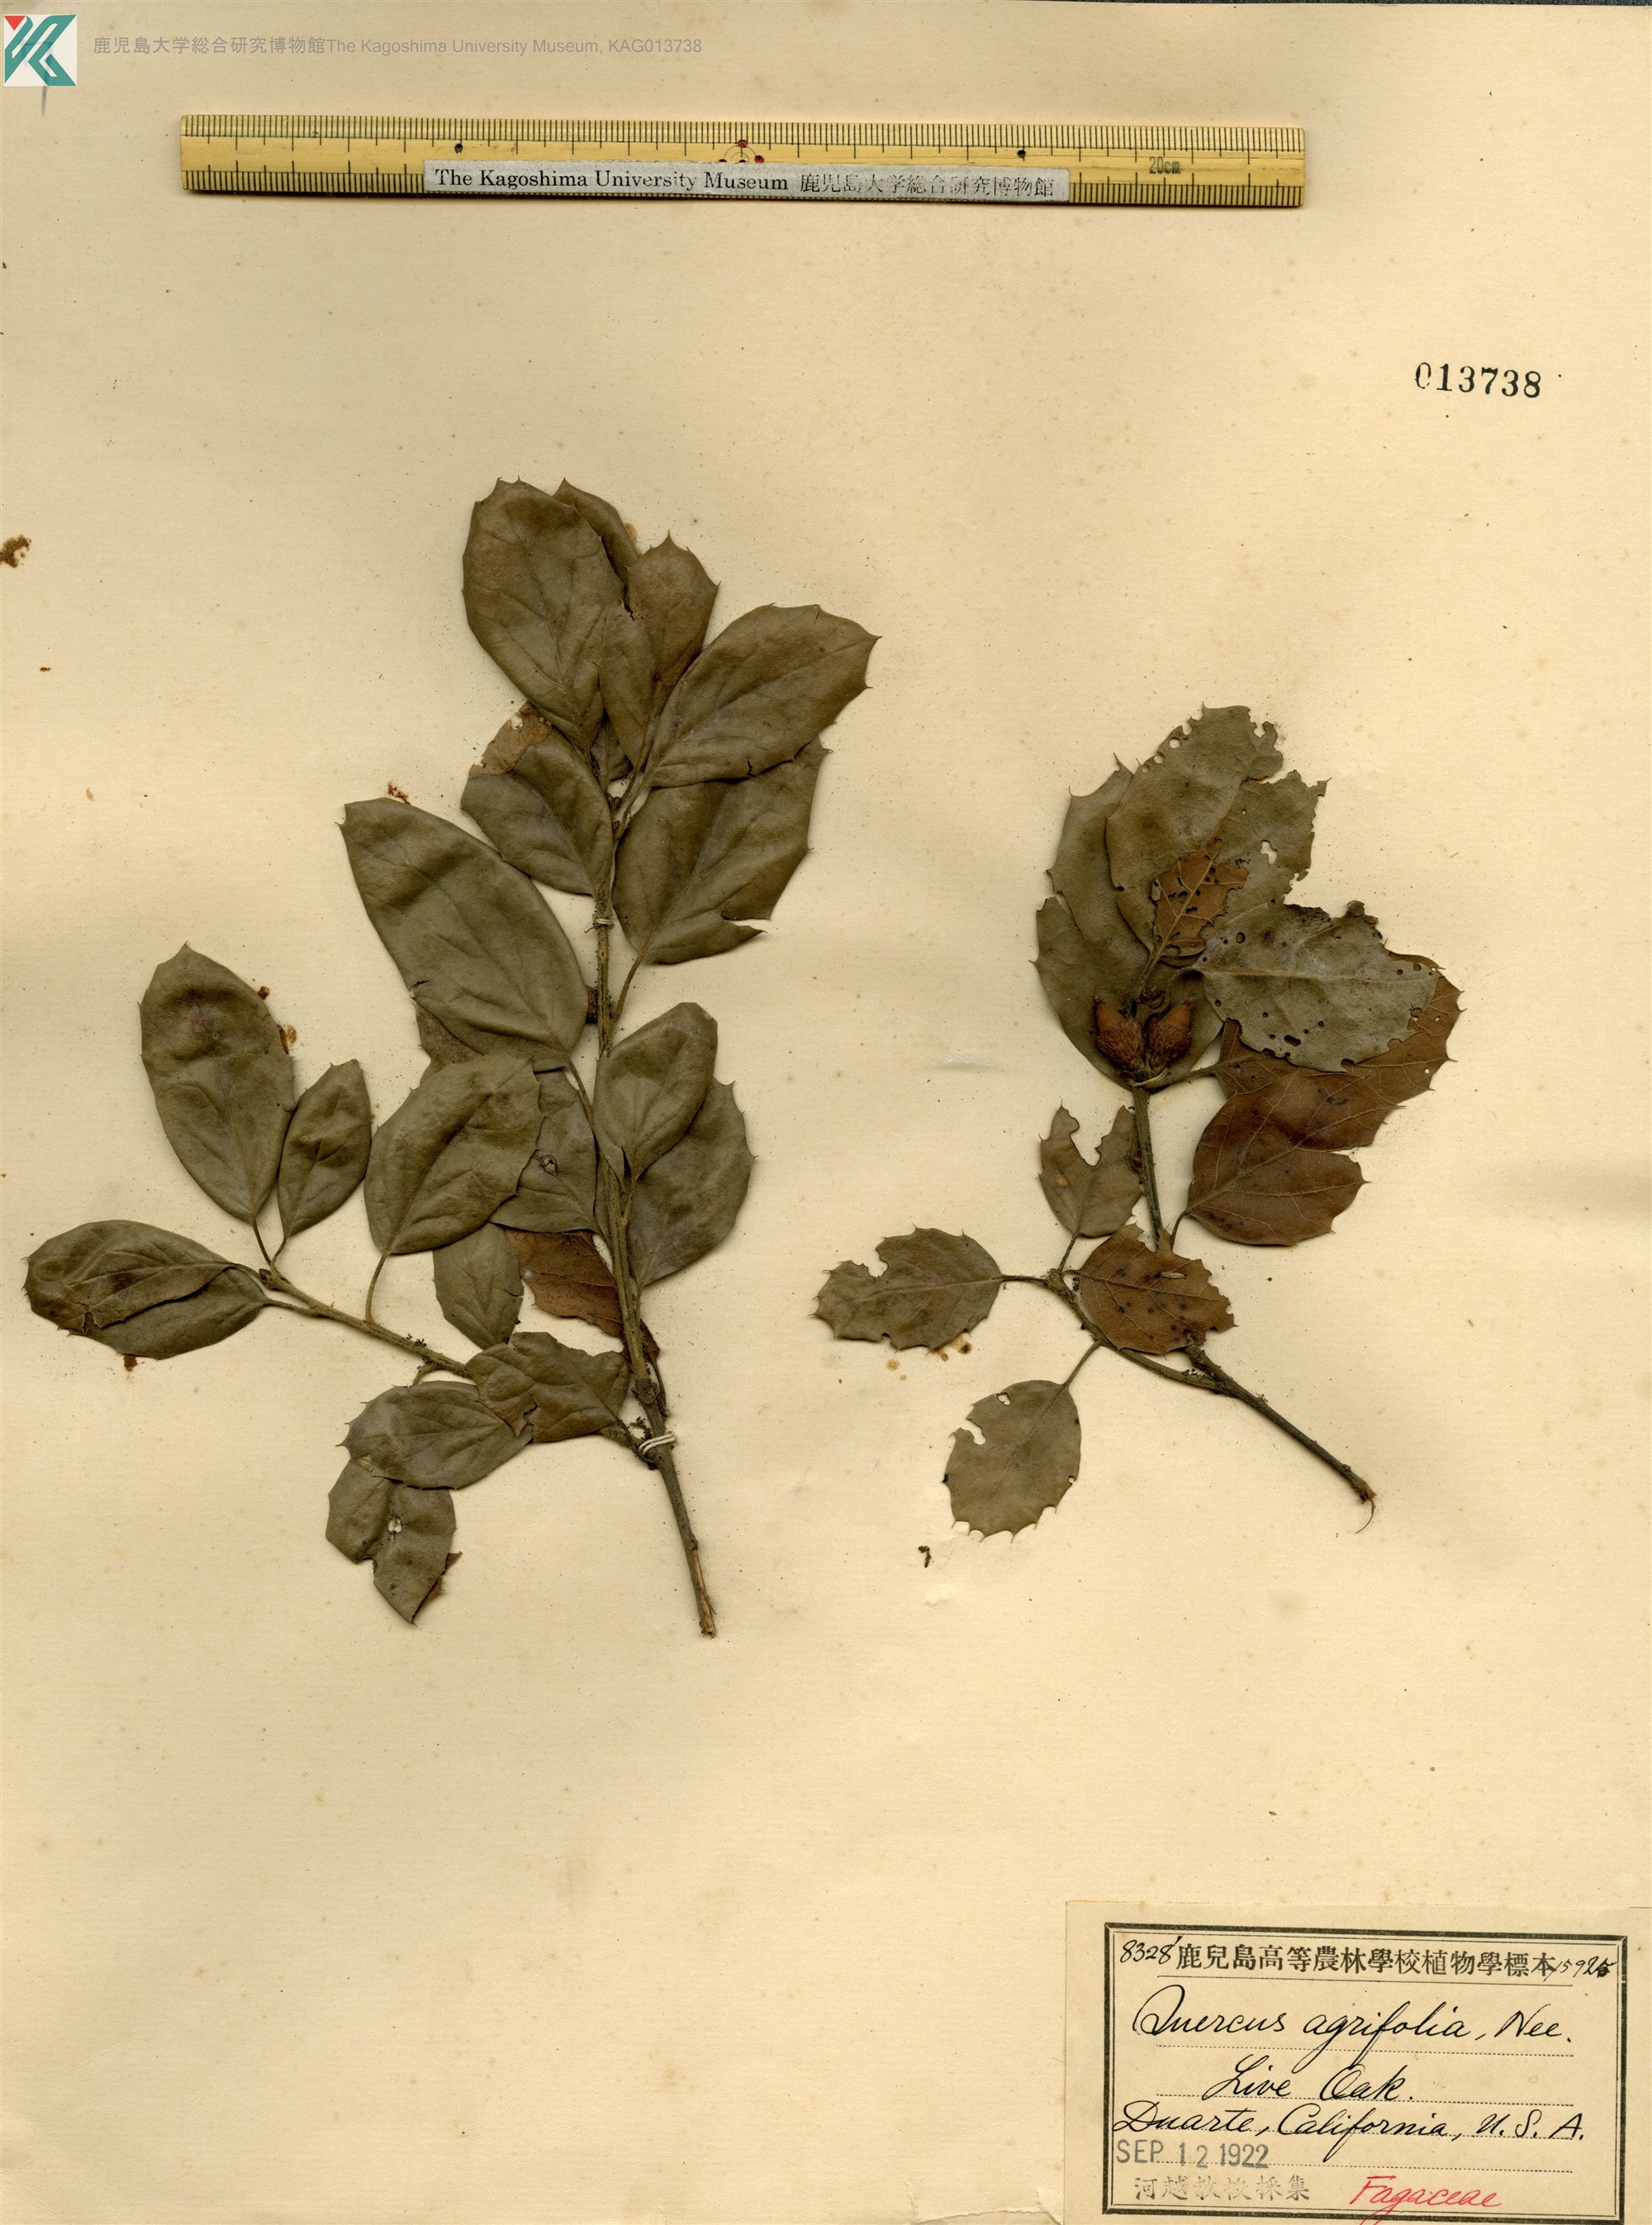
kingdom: Plantae
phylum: Tracheophyta
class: Magnoliopsida
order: Fagales
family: Fagaceae
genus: Quercus
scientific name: Quercus agrifolia
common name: California live oak
